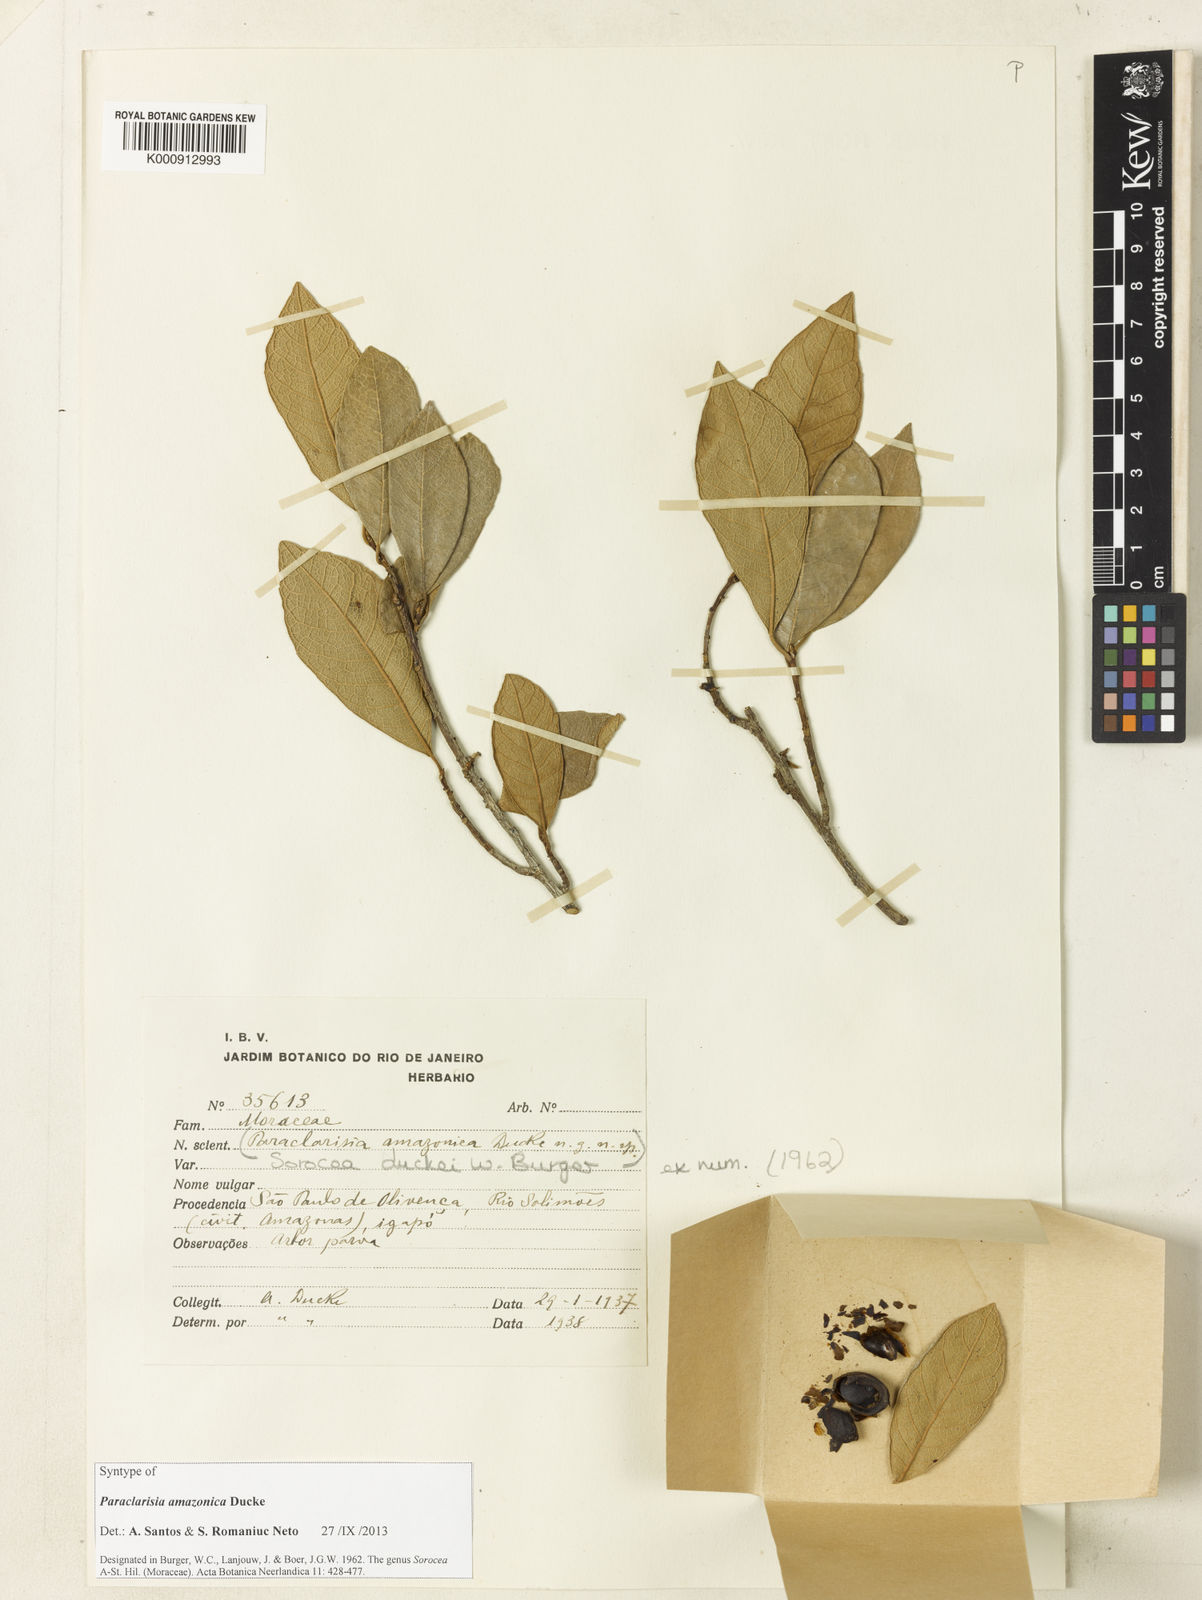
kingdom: Plantae
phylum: Tracheophyta
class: Magnoliopsida
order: Rosales
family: Moraceae
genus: Sorocea
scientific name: Sorocea duckei
